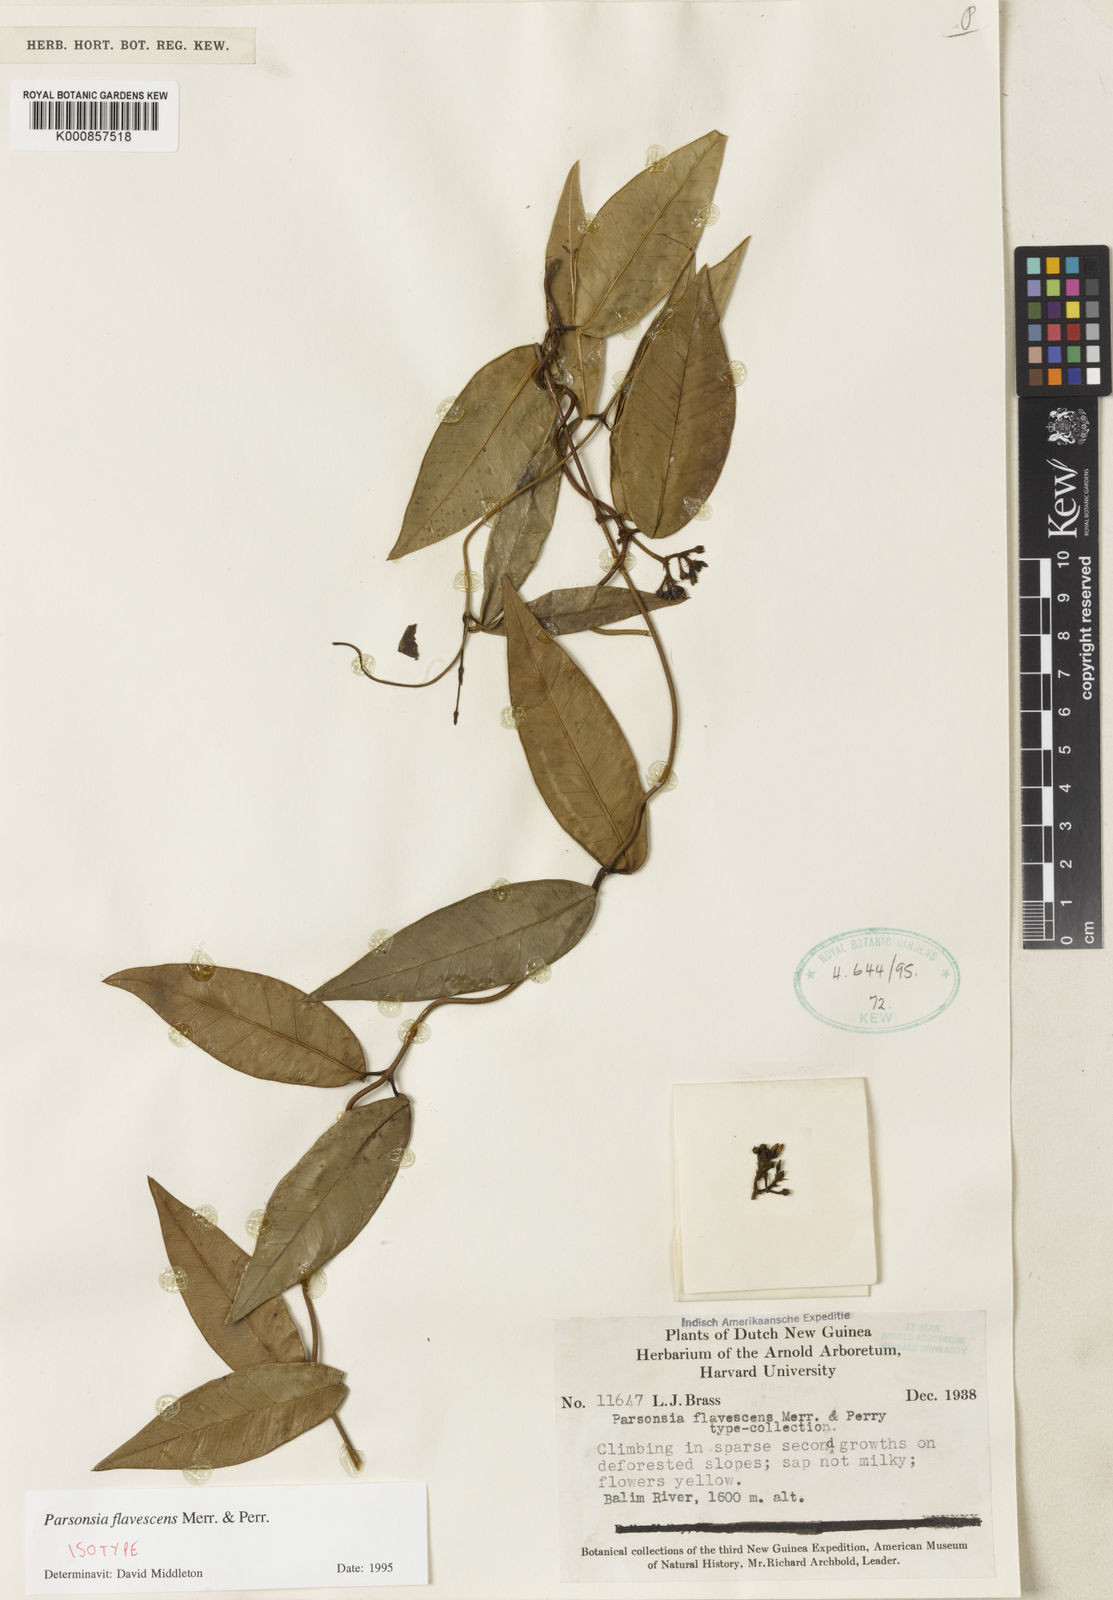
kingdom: Plantae
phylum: Tracheophyta
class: Magnoliopsida
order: Gentianales
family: Apocynaceae
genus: Parsonsia
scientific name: Parsonsia flavescens
